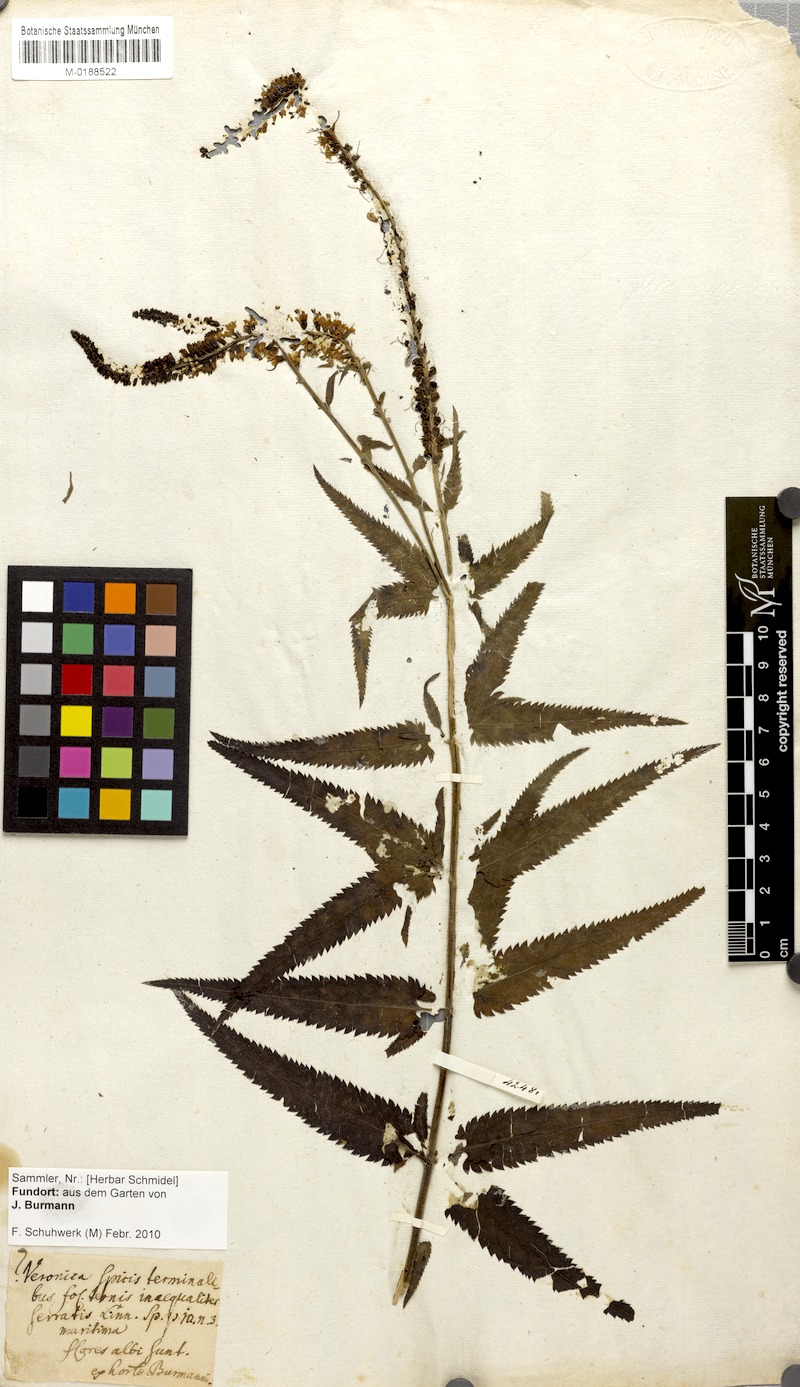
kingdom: Plantae
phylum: Tracheophyta
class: Magnoliopsida
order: Lamiales
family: Plantaginaceae
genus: Veronica
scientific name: Veronica longifolia
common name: Garden speedwell
